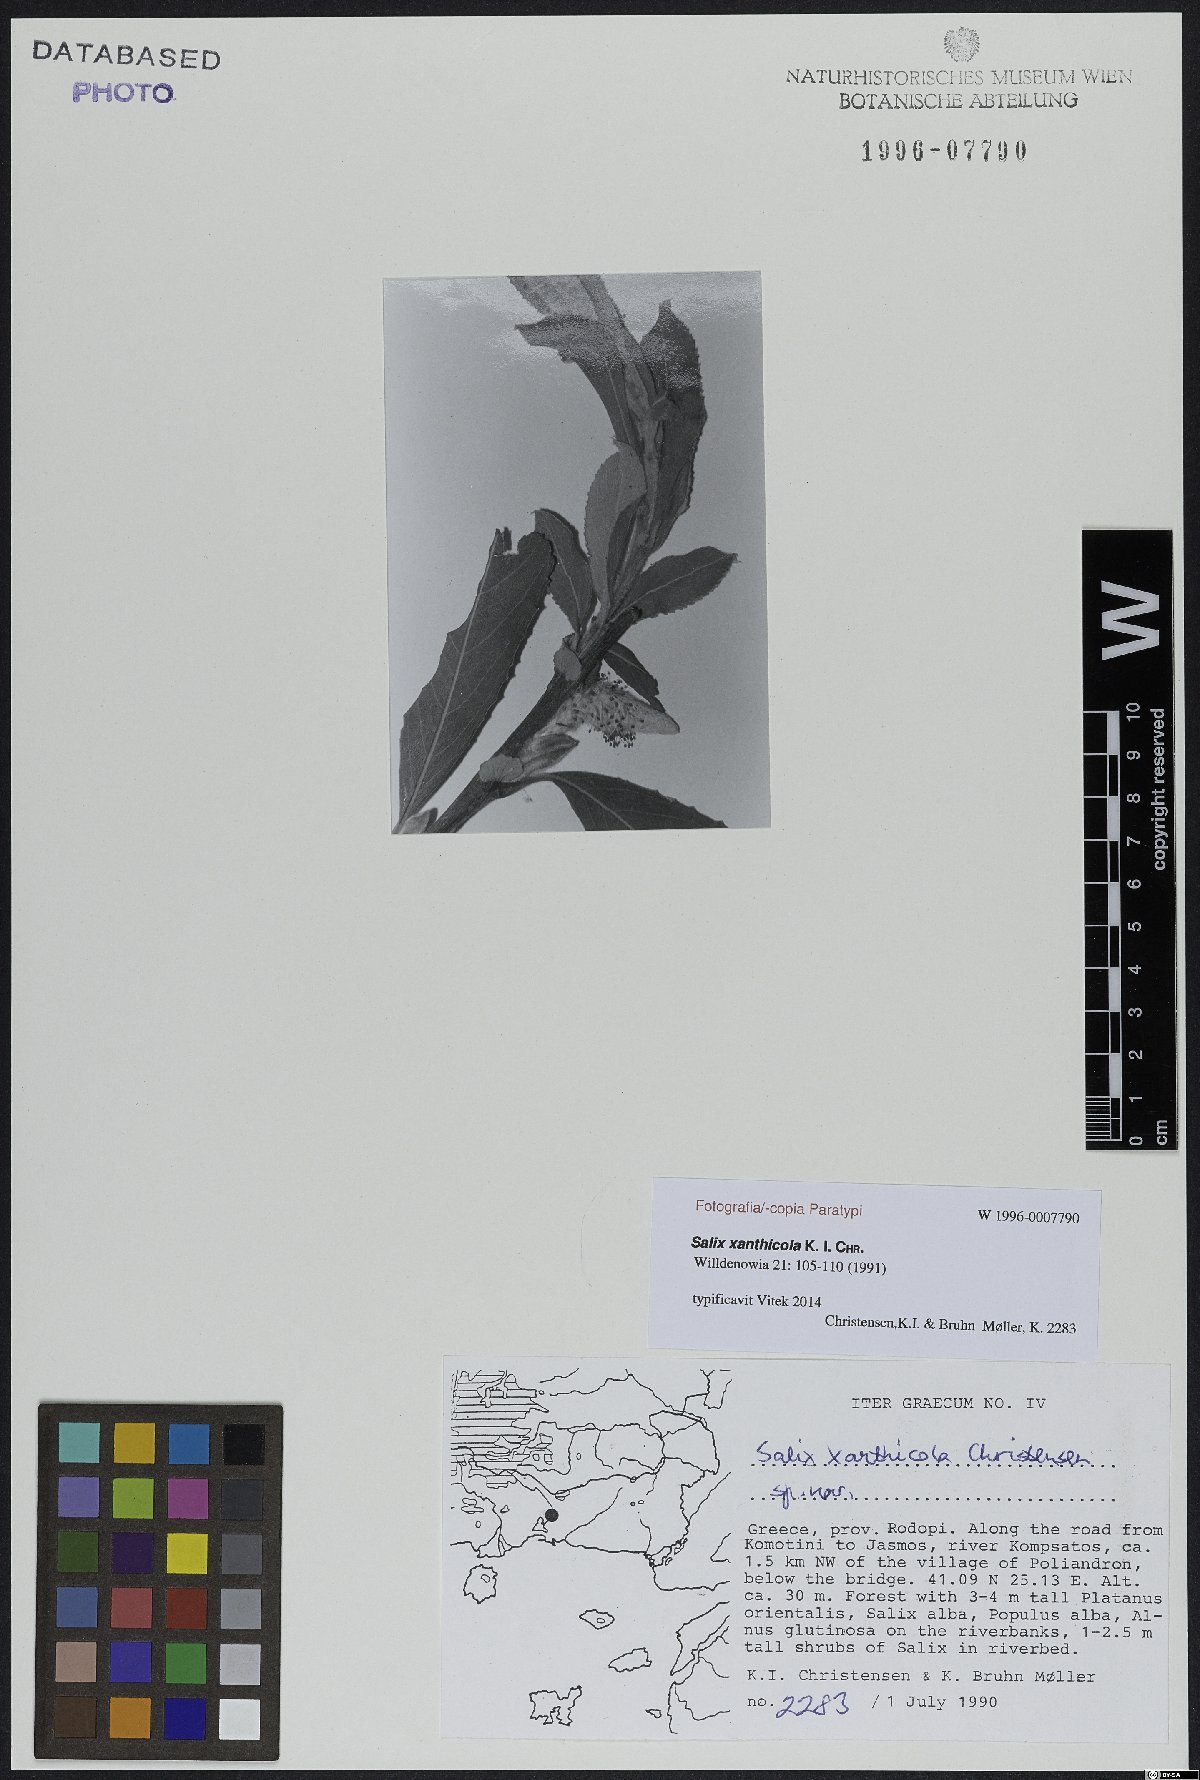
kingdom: Plantae
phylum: Tracheophyta
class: Magnoliopsida
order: Malpighiales
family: Salicaceae
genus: Salix
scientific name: Salix xanthicola
